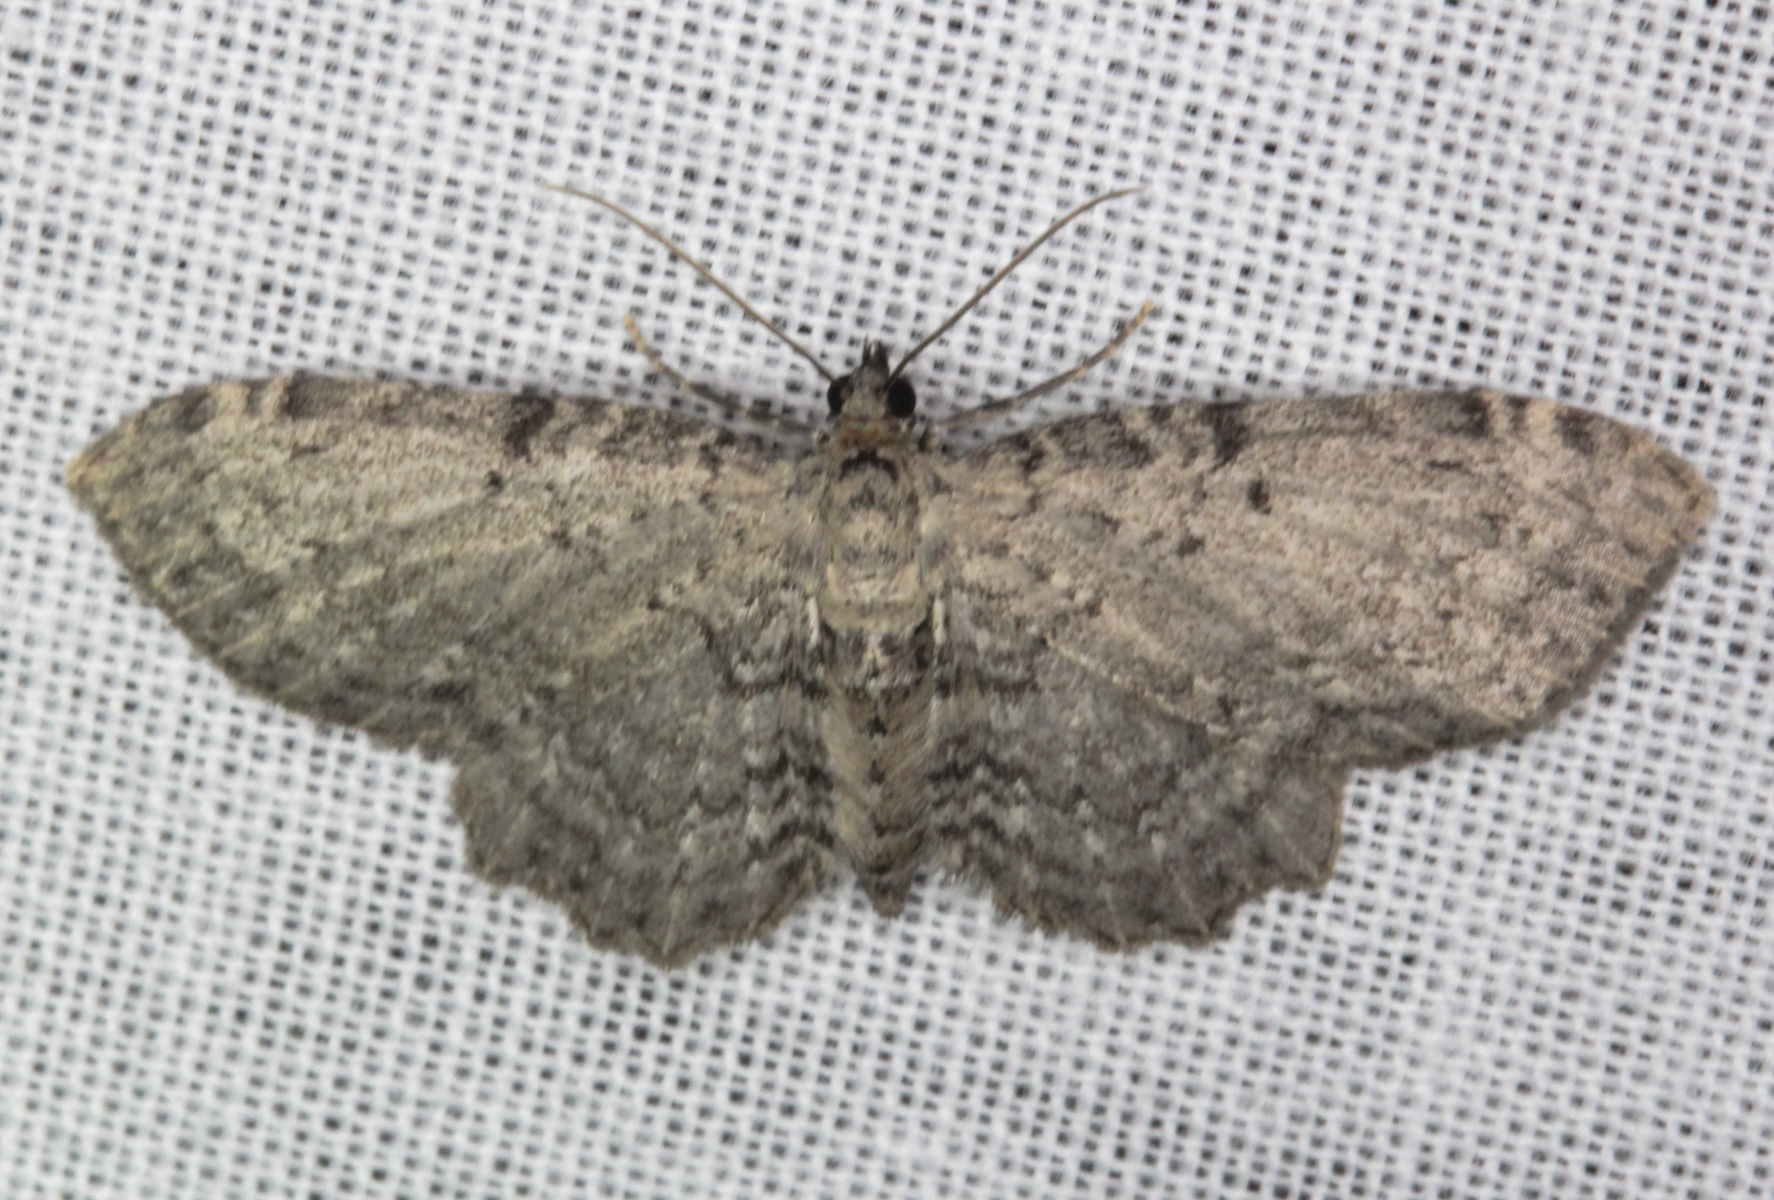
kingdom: Animalia
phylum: Arthropoda
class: Insecta
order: Lepidoptera
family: Geometridae
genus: Anticollix
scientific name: Anticollix sparsata
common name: Dentated pug
